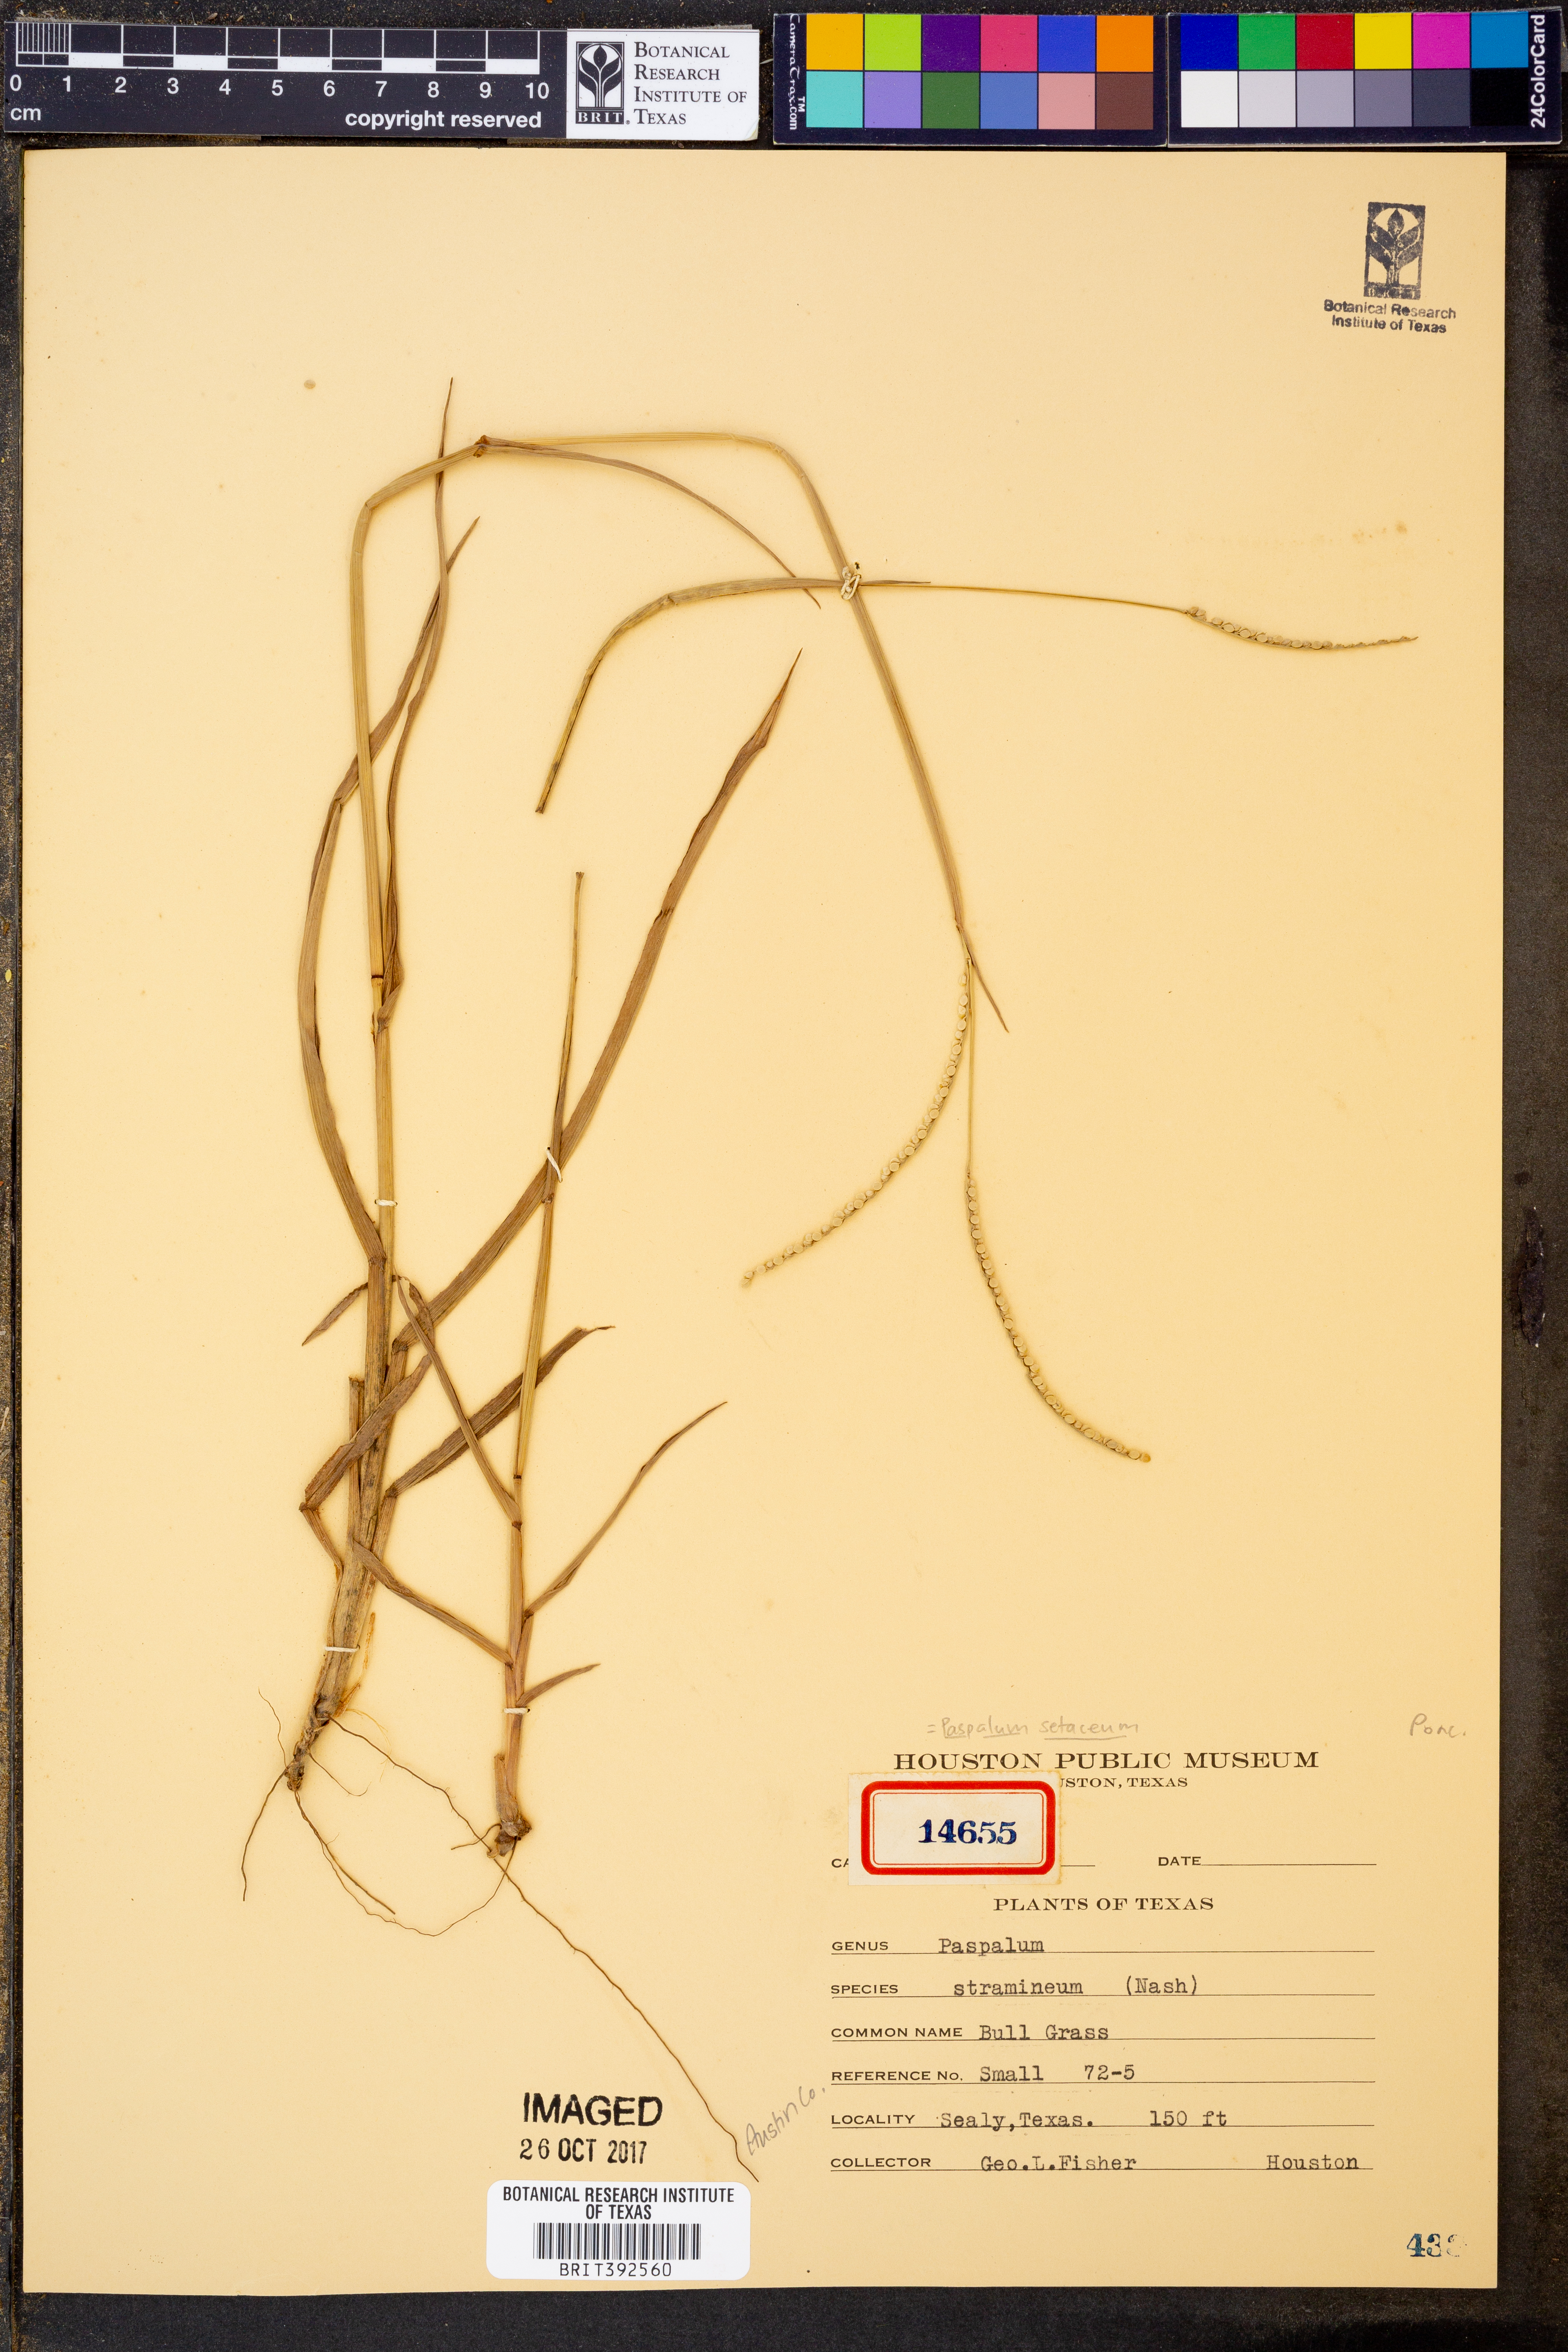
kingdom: Plantae
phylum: Tracheophyta
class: Liliopsida
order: Poales
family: Poaceae
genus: Paspalum
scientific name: Paspalum setaceum
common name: Slender paspalum
